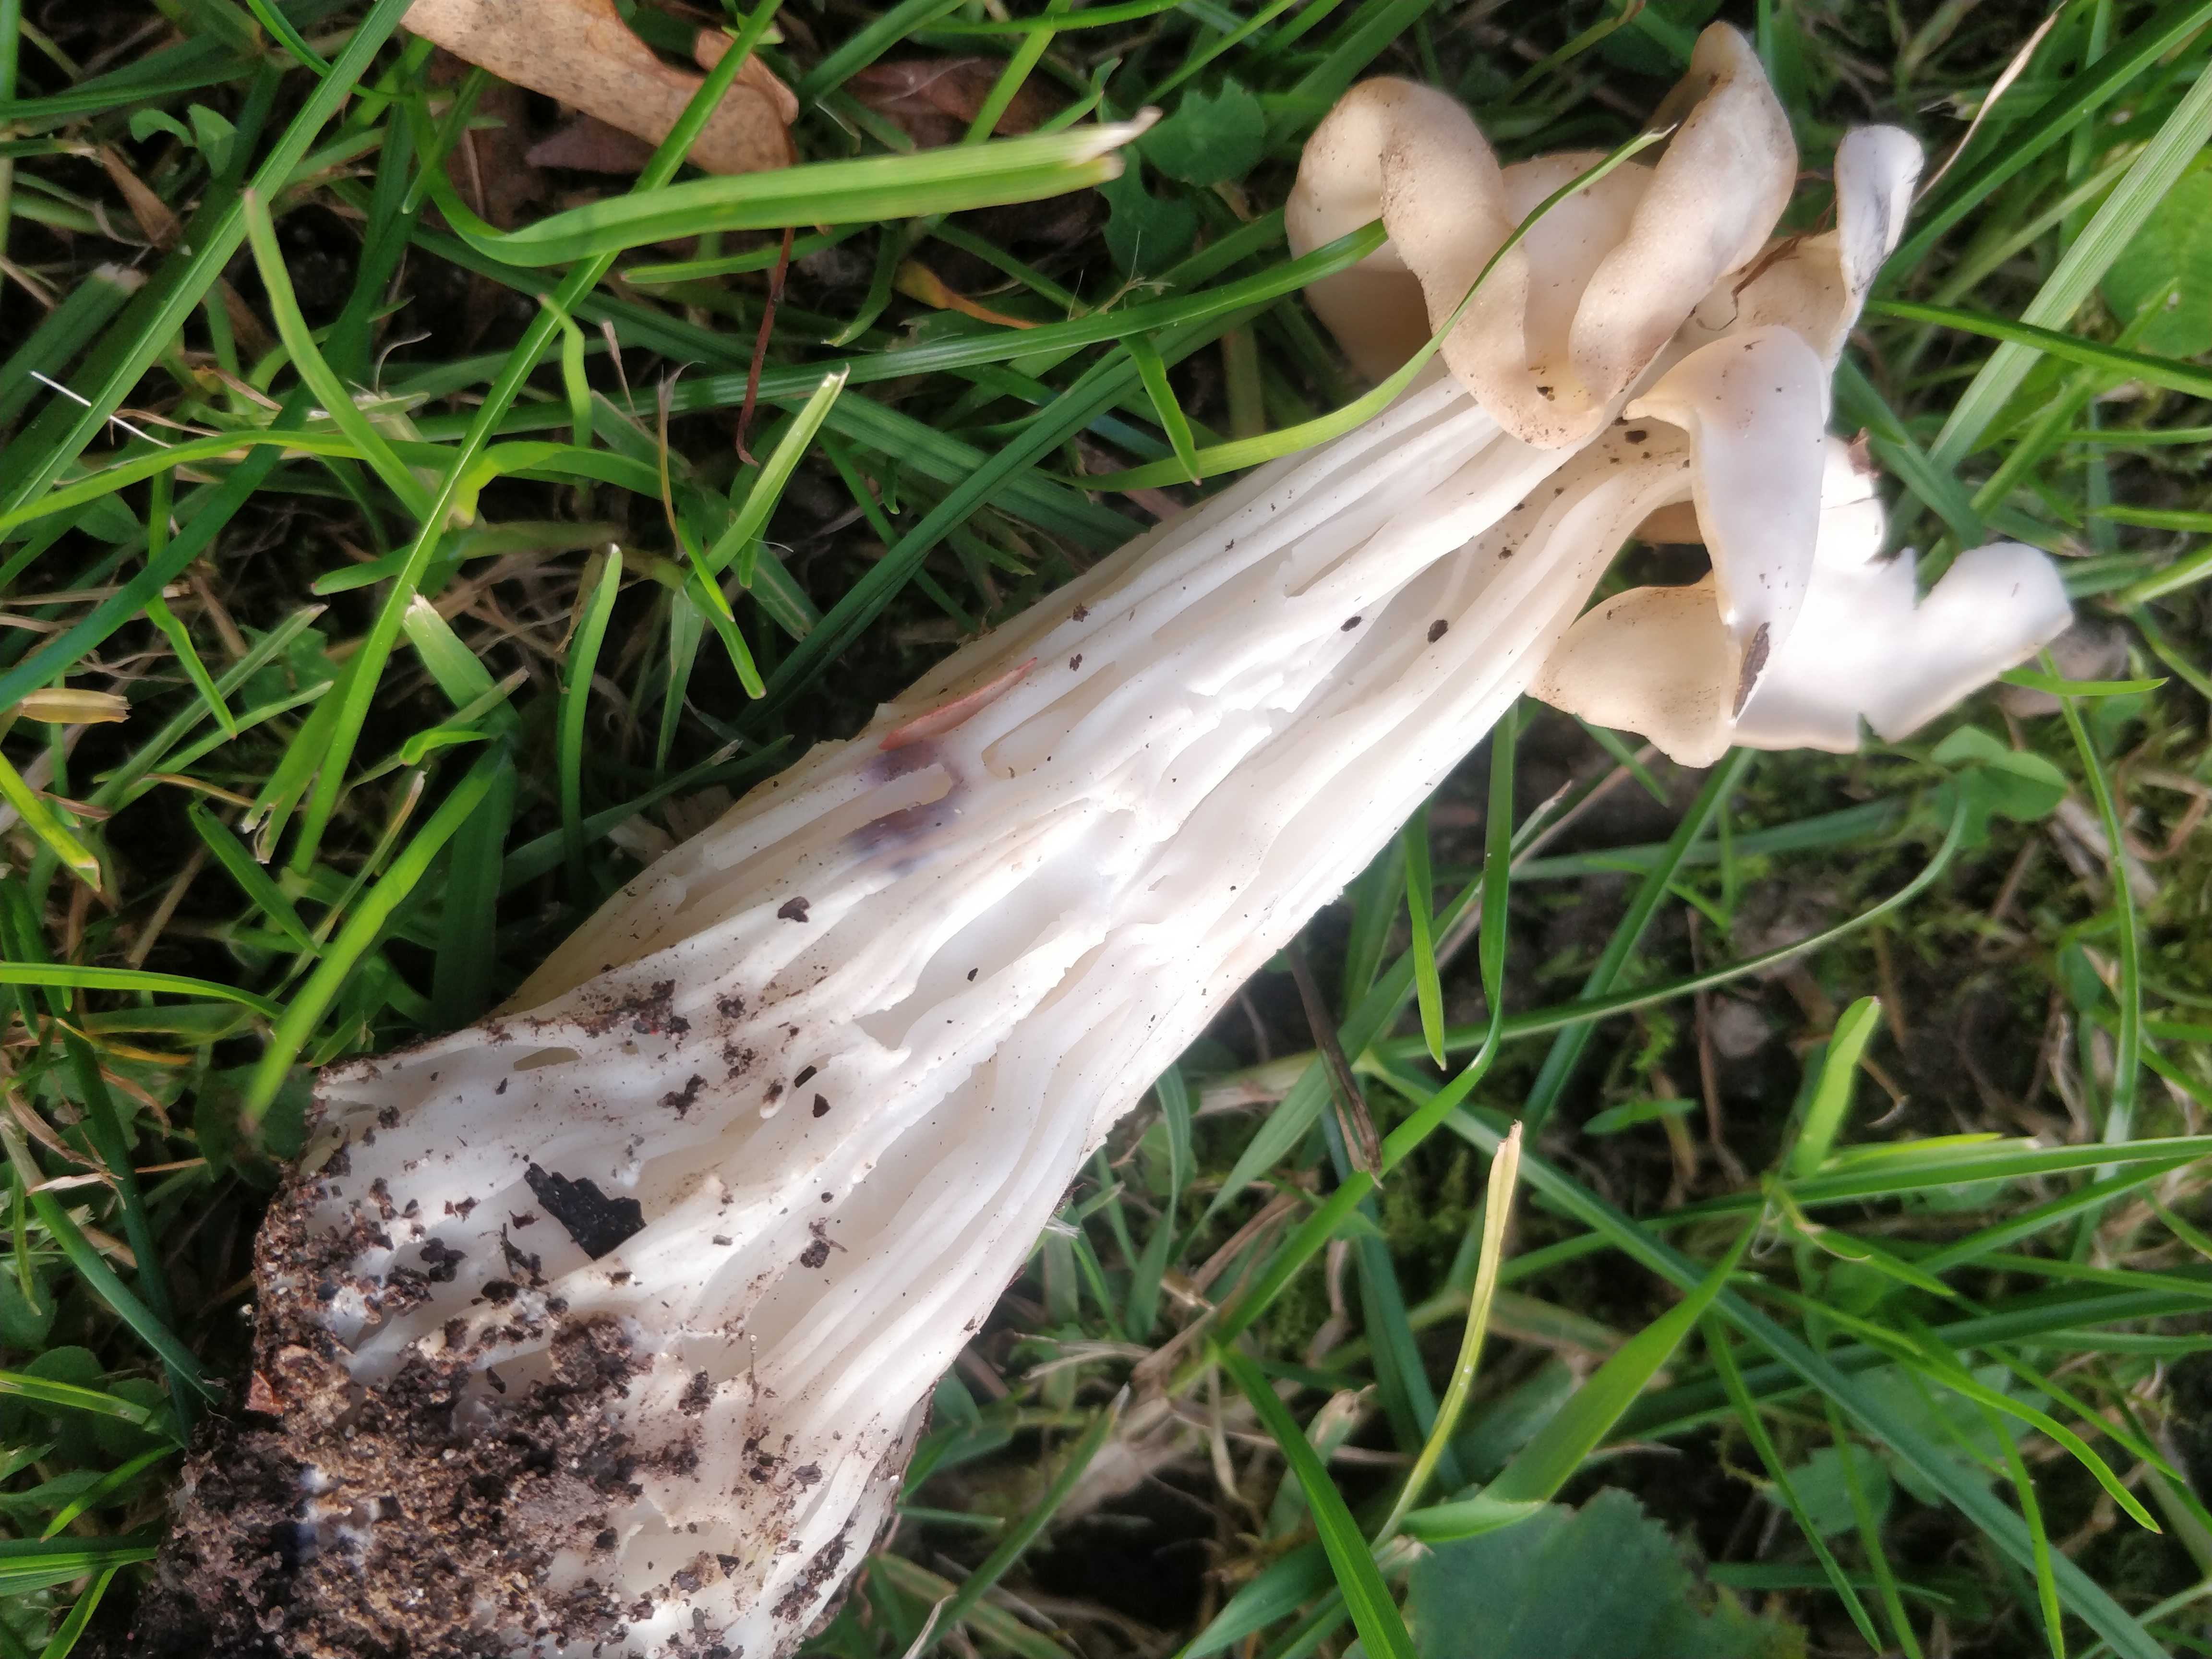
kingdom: Fungi
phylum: Ascomycota
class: Pezizomycetes
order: Pezizales
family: Helvellaceae
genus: Helvella
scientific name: Helvella crispa
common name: kruset foldhat
